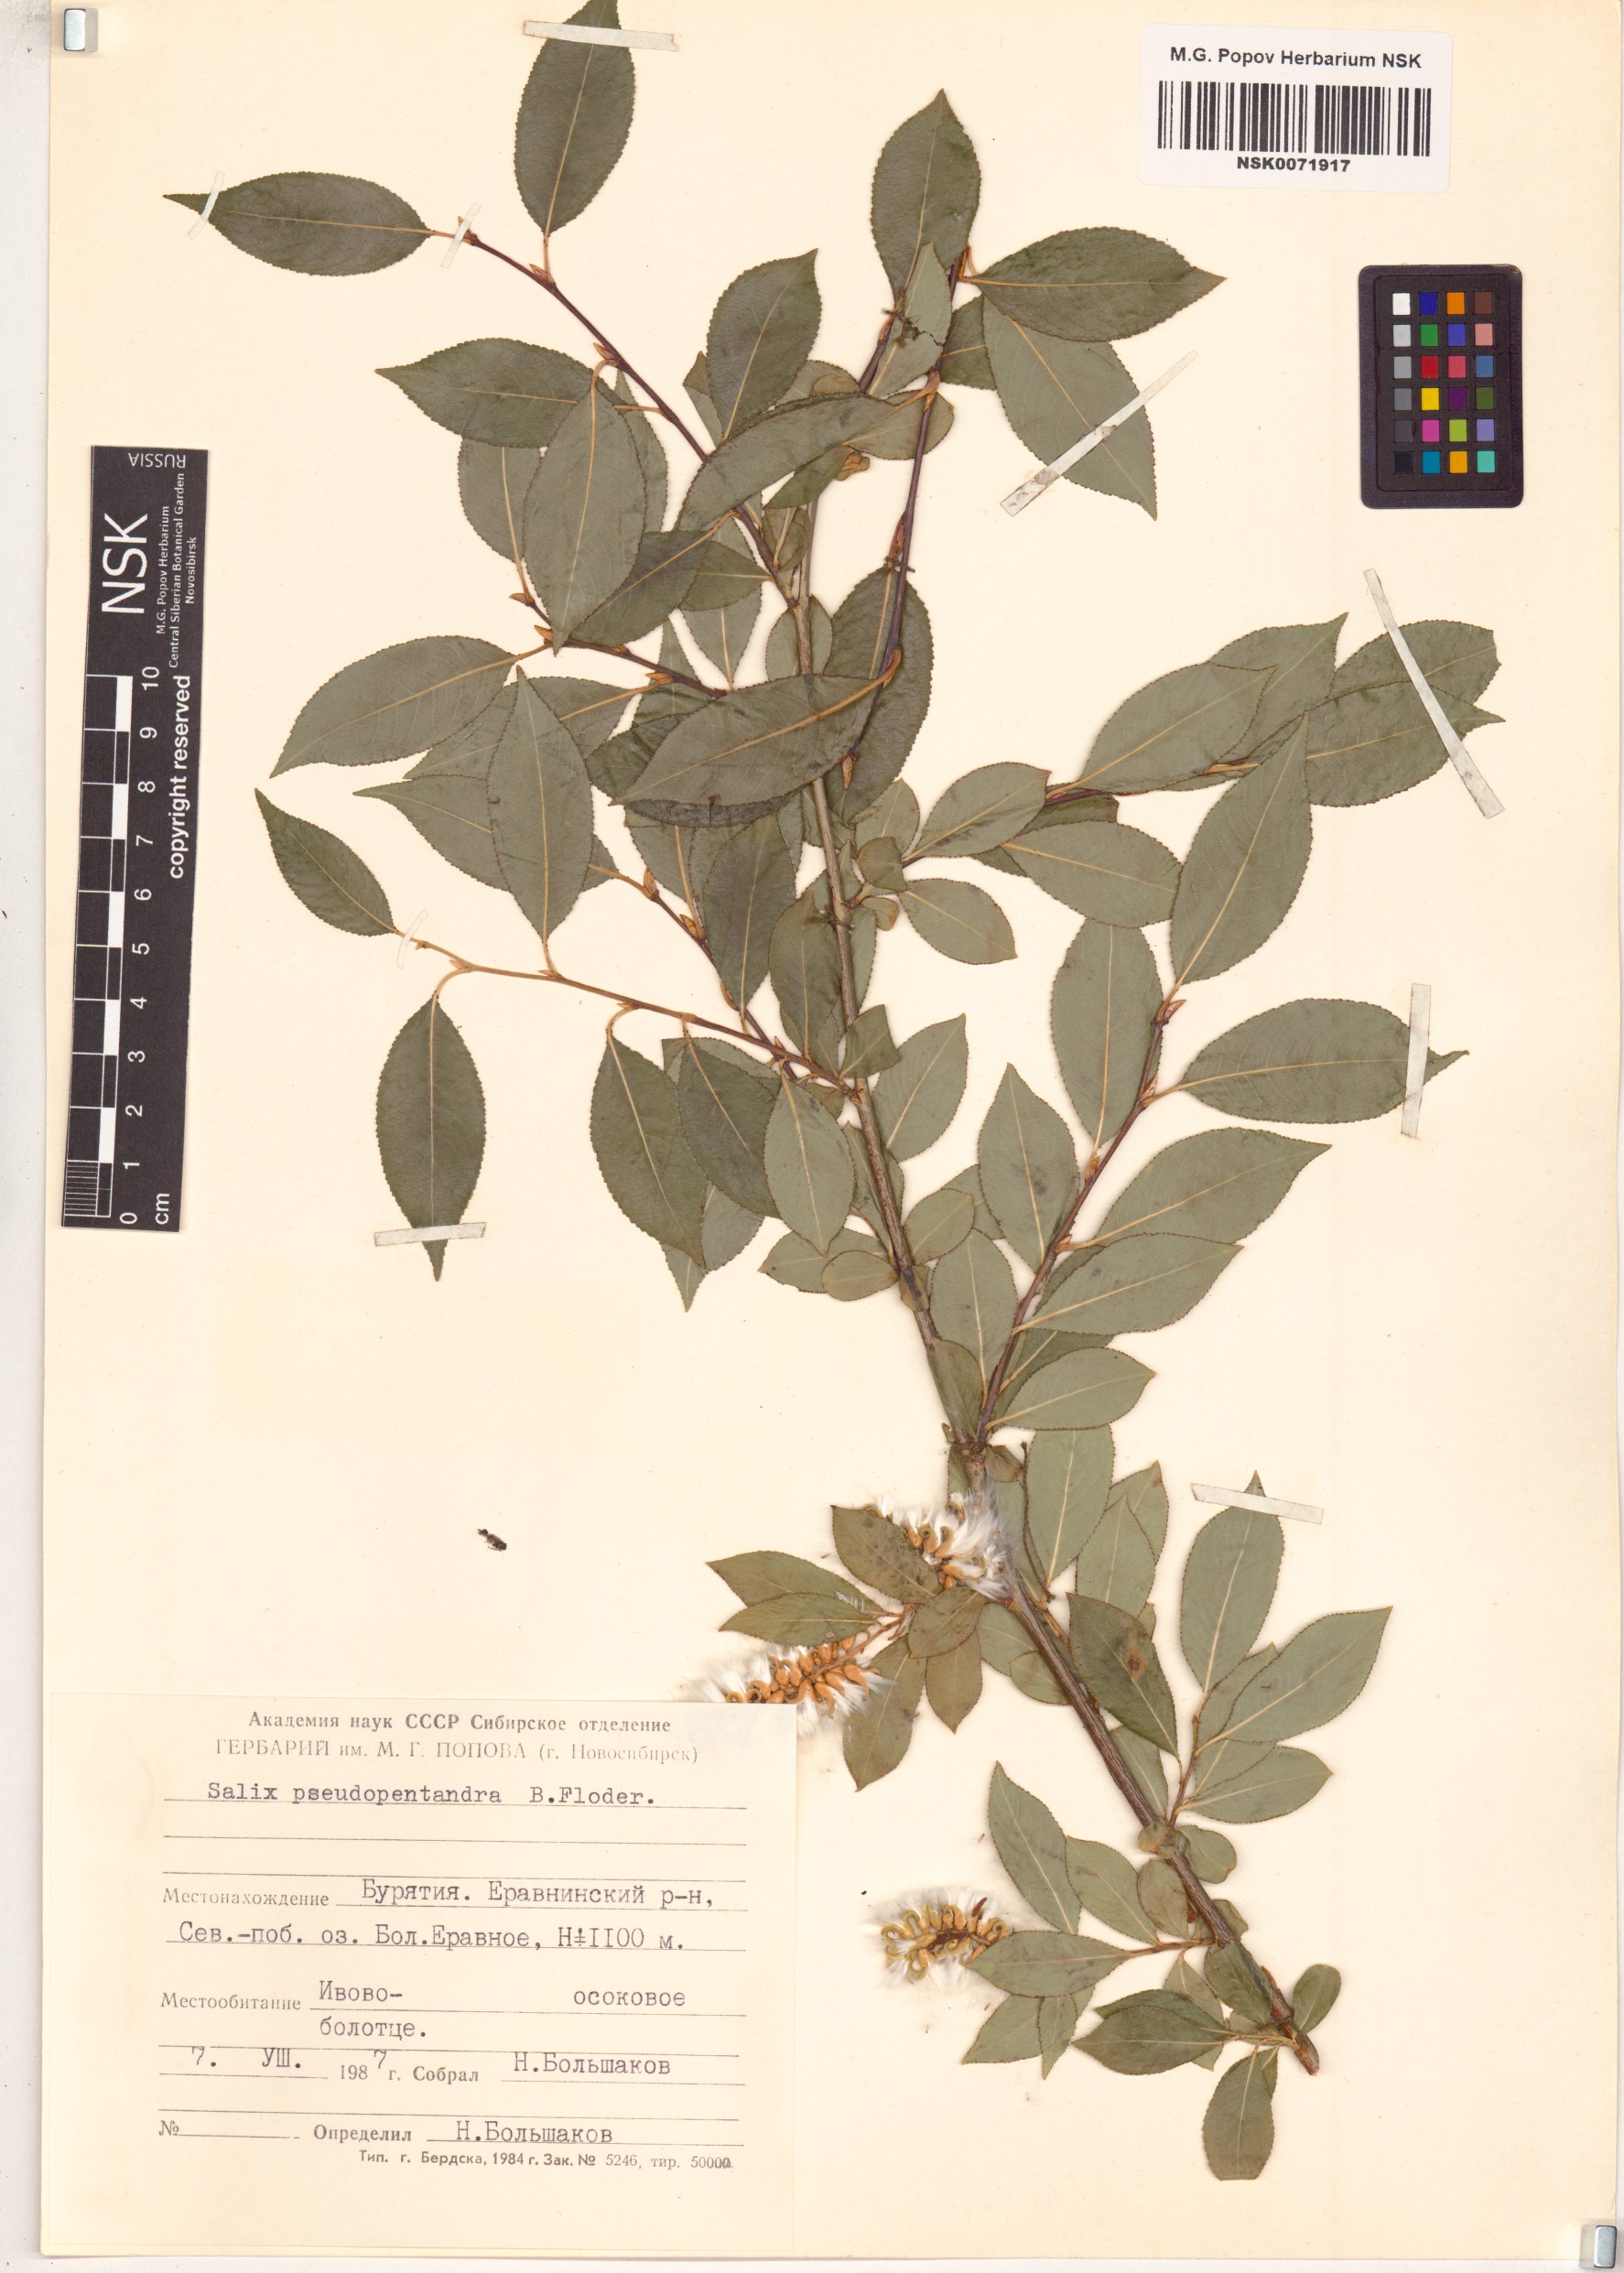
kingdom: Plantae
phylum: Tracheophyta
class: Magnoliopsida
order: Malpighiales
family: Salicaceae
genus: Salix
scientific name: Salix pseudopentandra
